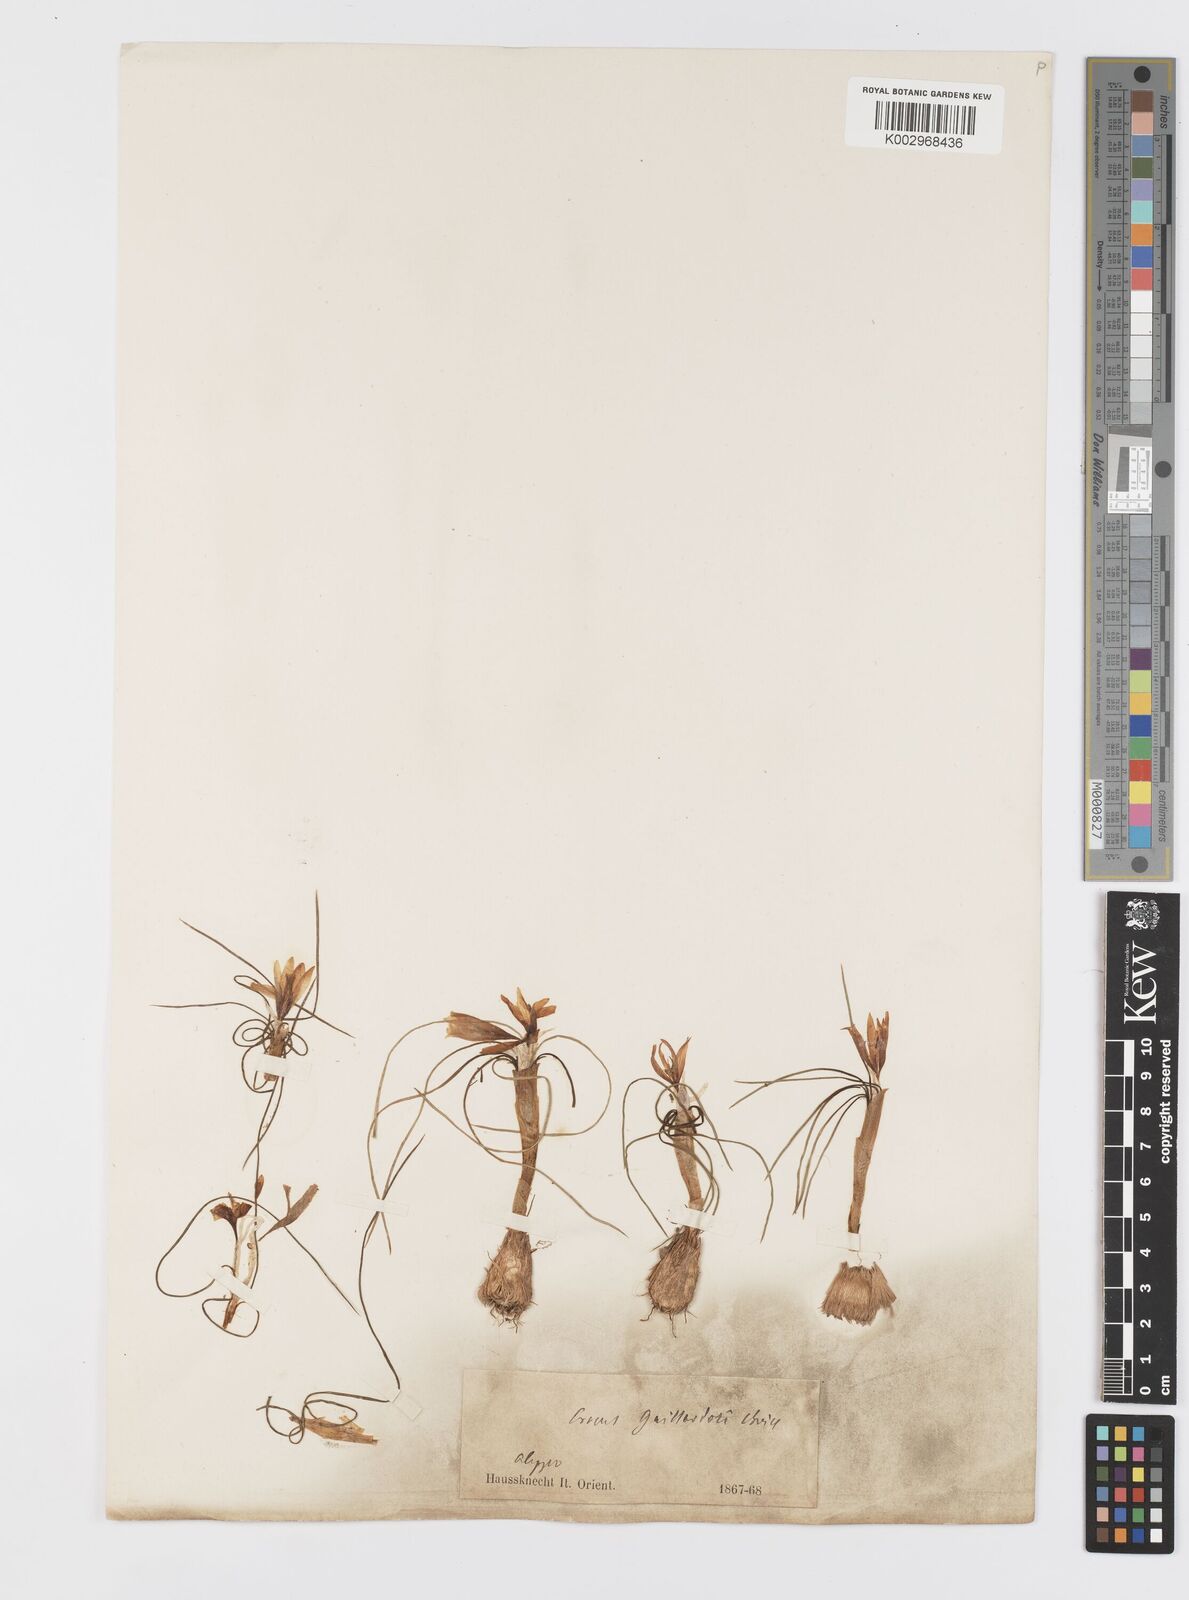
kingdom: Plantae
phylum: Tracheophyta
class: Liliopsida
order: Asparagales
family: Iridaceae
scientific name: Iridaceae
